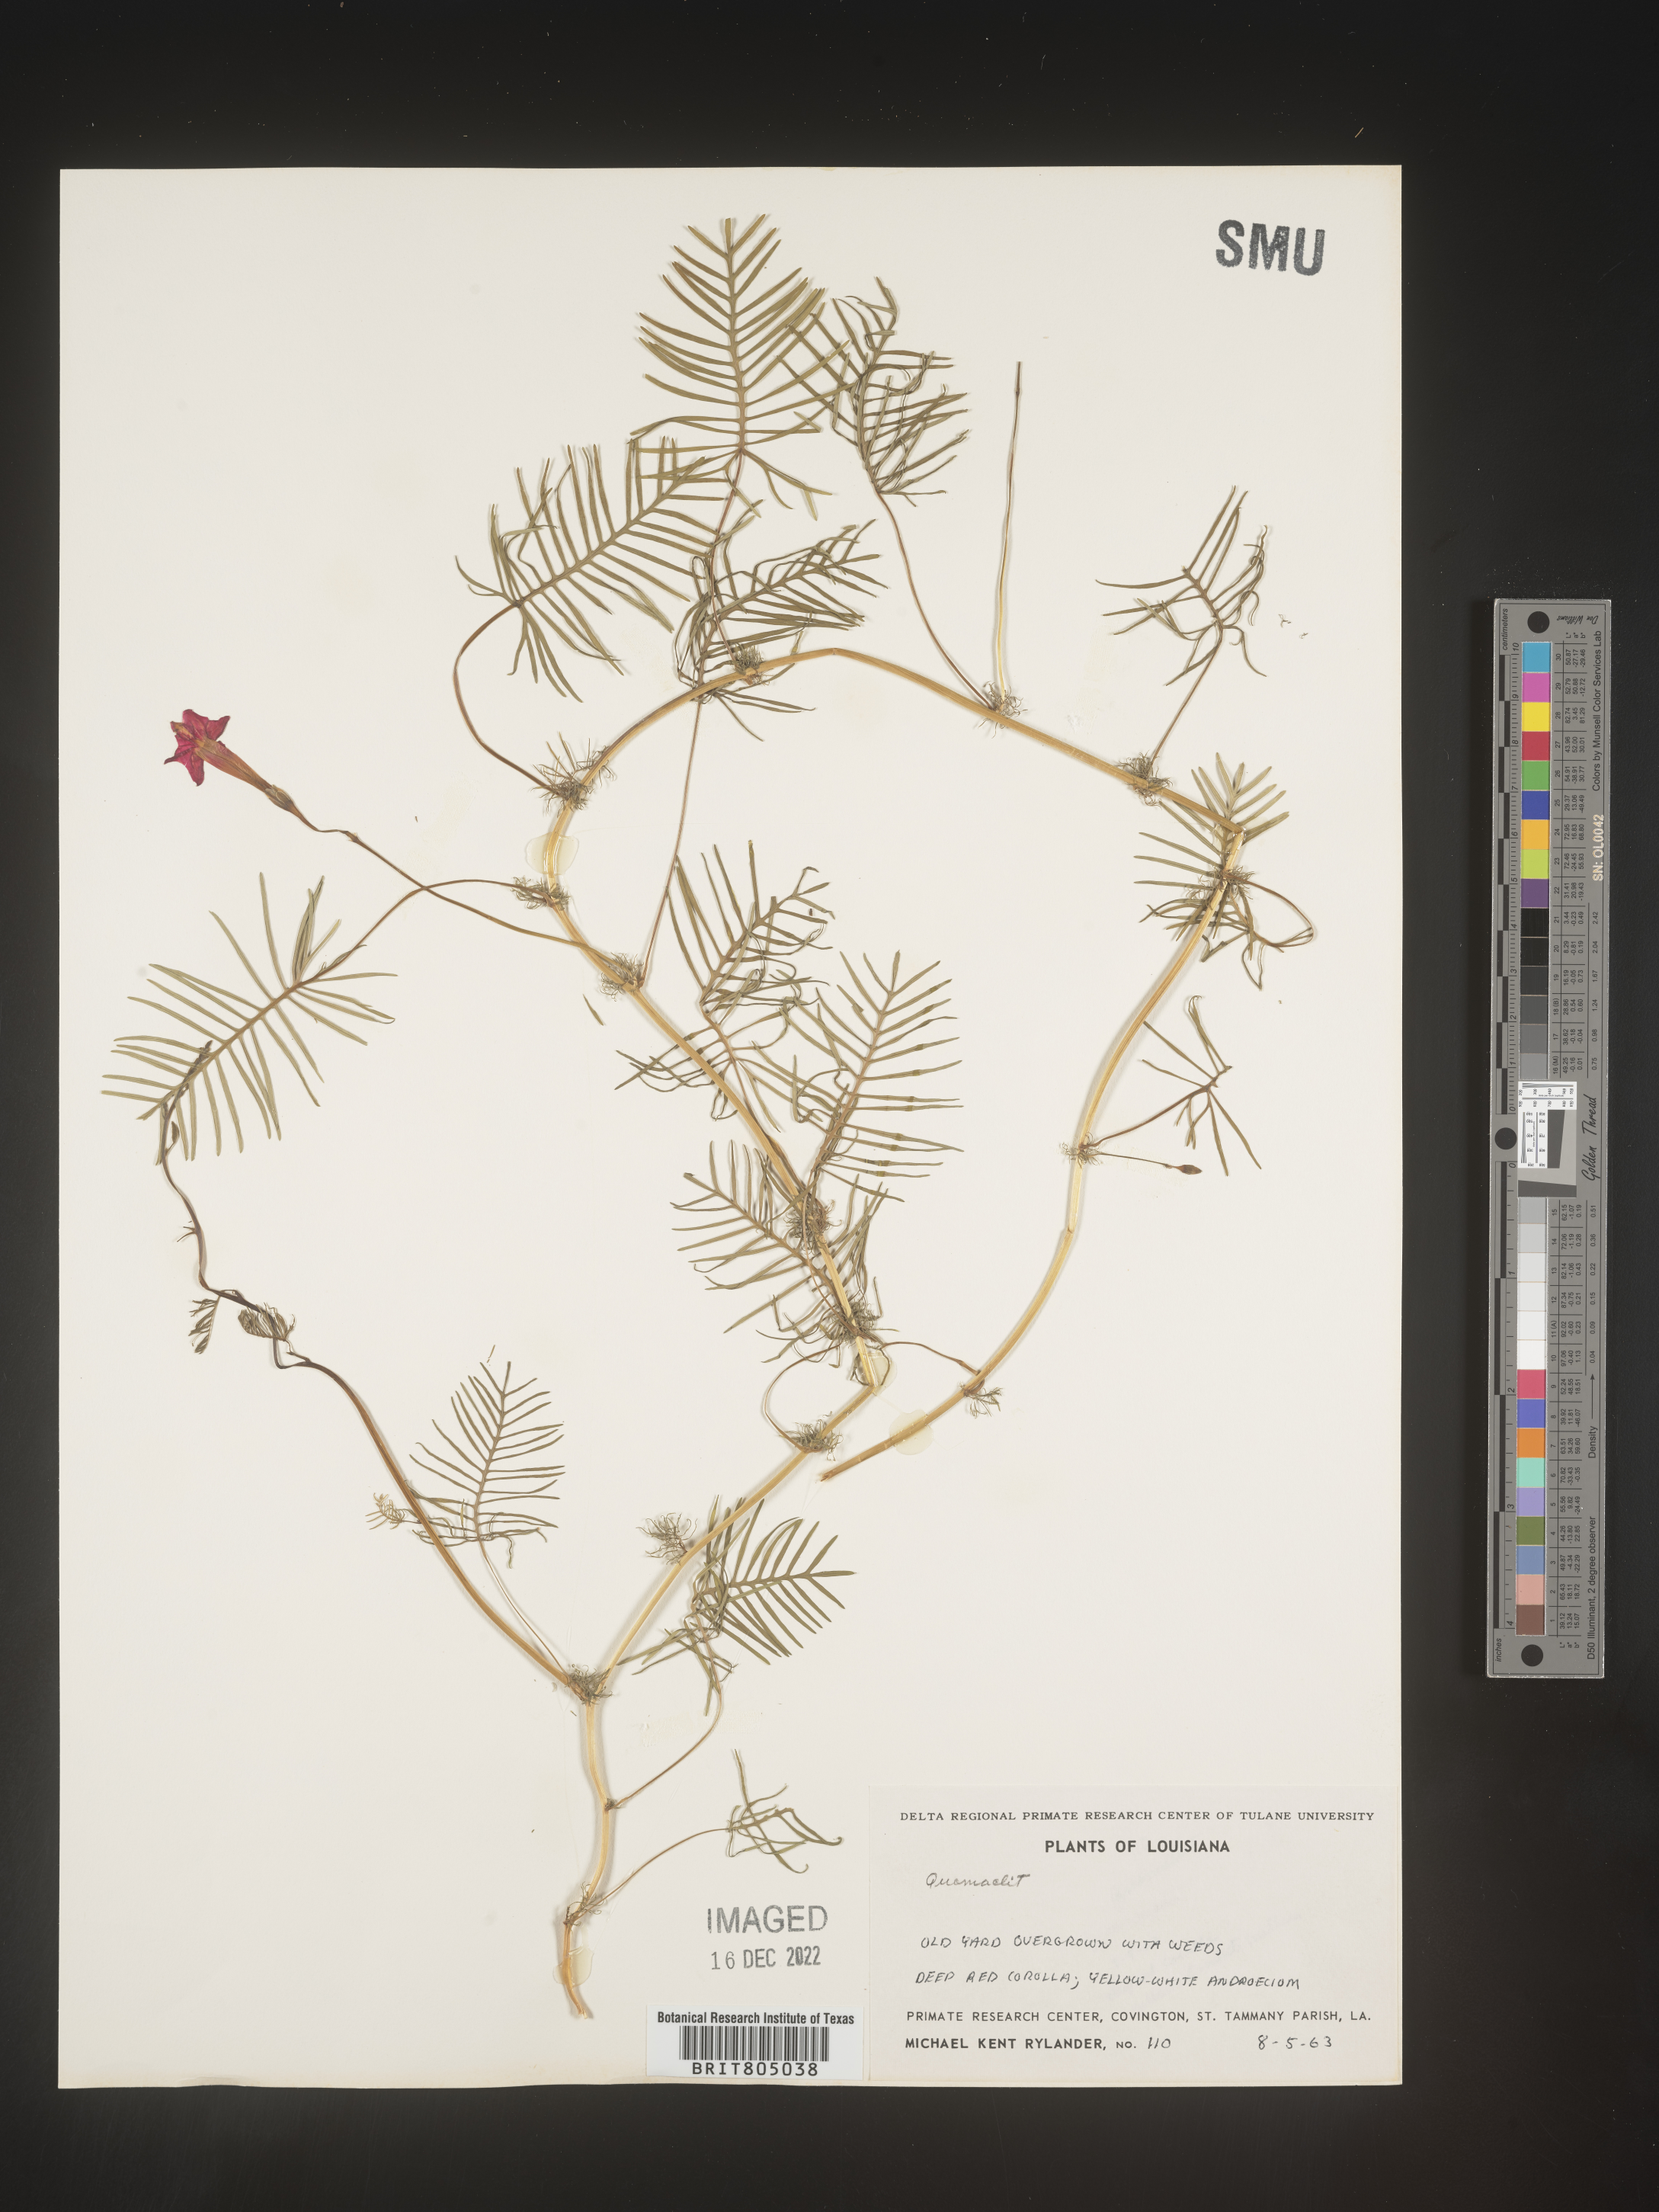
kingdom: Plantae
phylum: Tracheophyta
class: Magnoliopsida
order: Solanales
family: Convolvulaceae
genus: Ipomoea
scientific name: Ipomoea quamoclit
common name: Cypress vine
